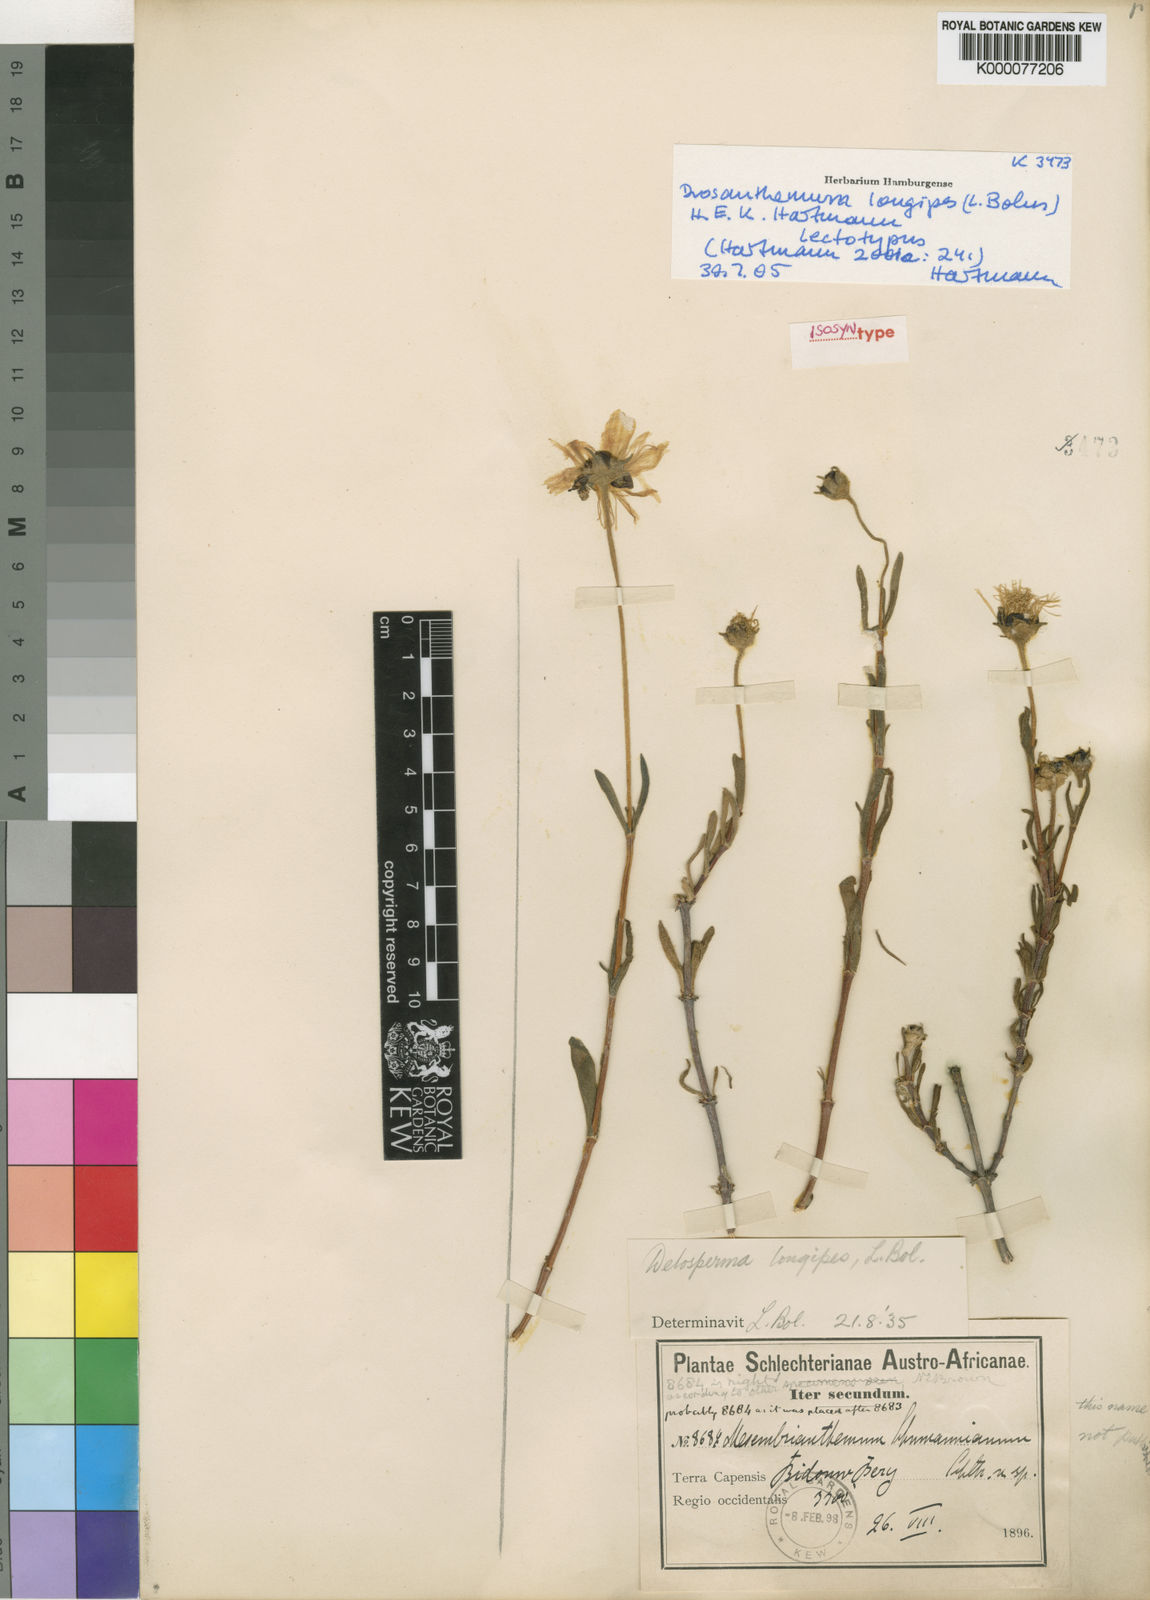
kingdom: Plantae
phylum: Tracheophyta
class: Magnoliopsida
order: Caryophyllales
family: Aizoaceae
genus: Drosanthemum
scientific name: Drosanthemum longipes
